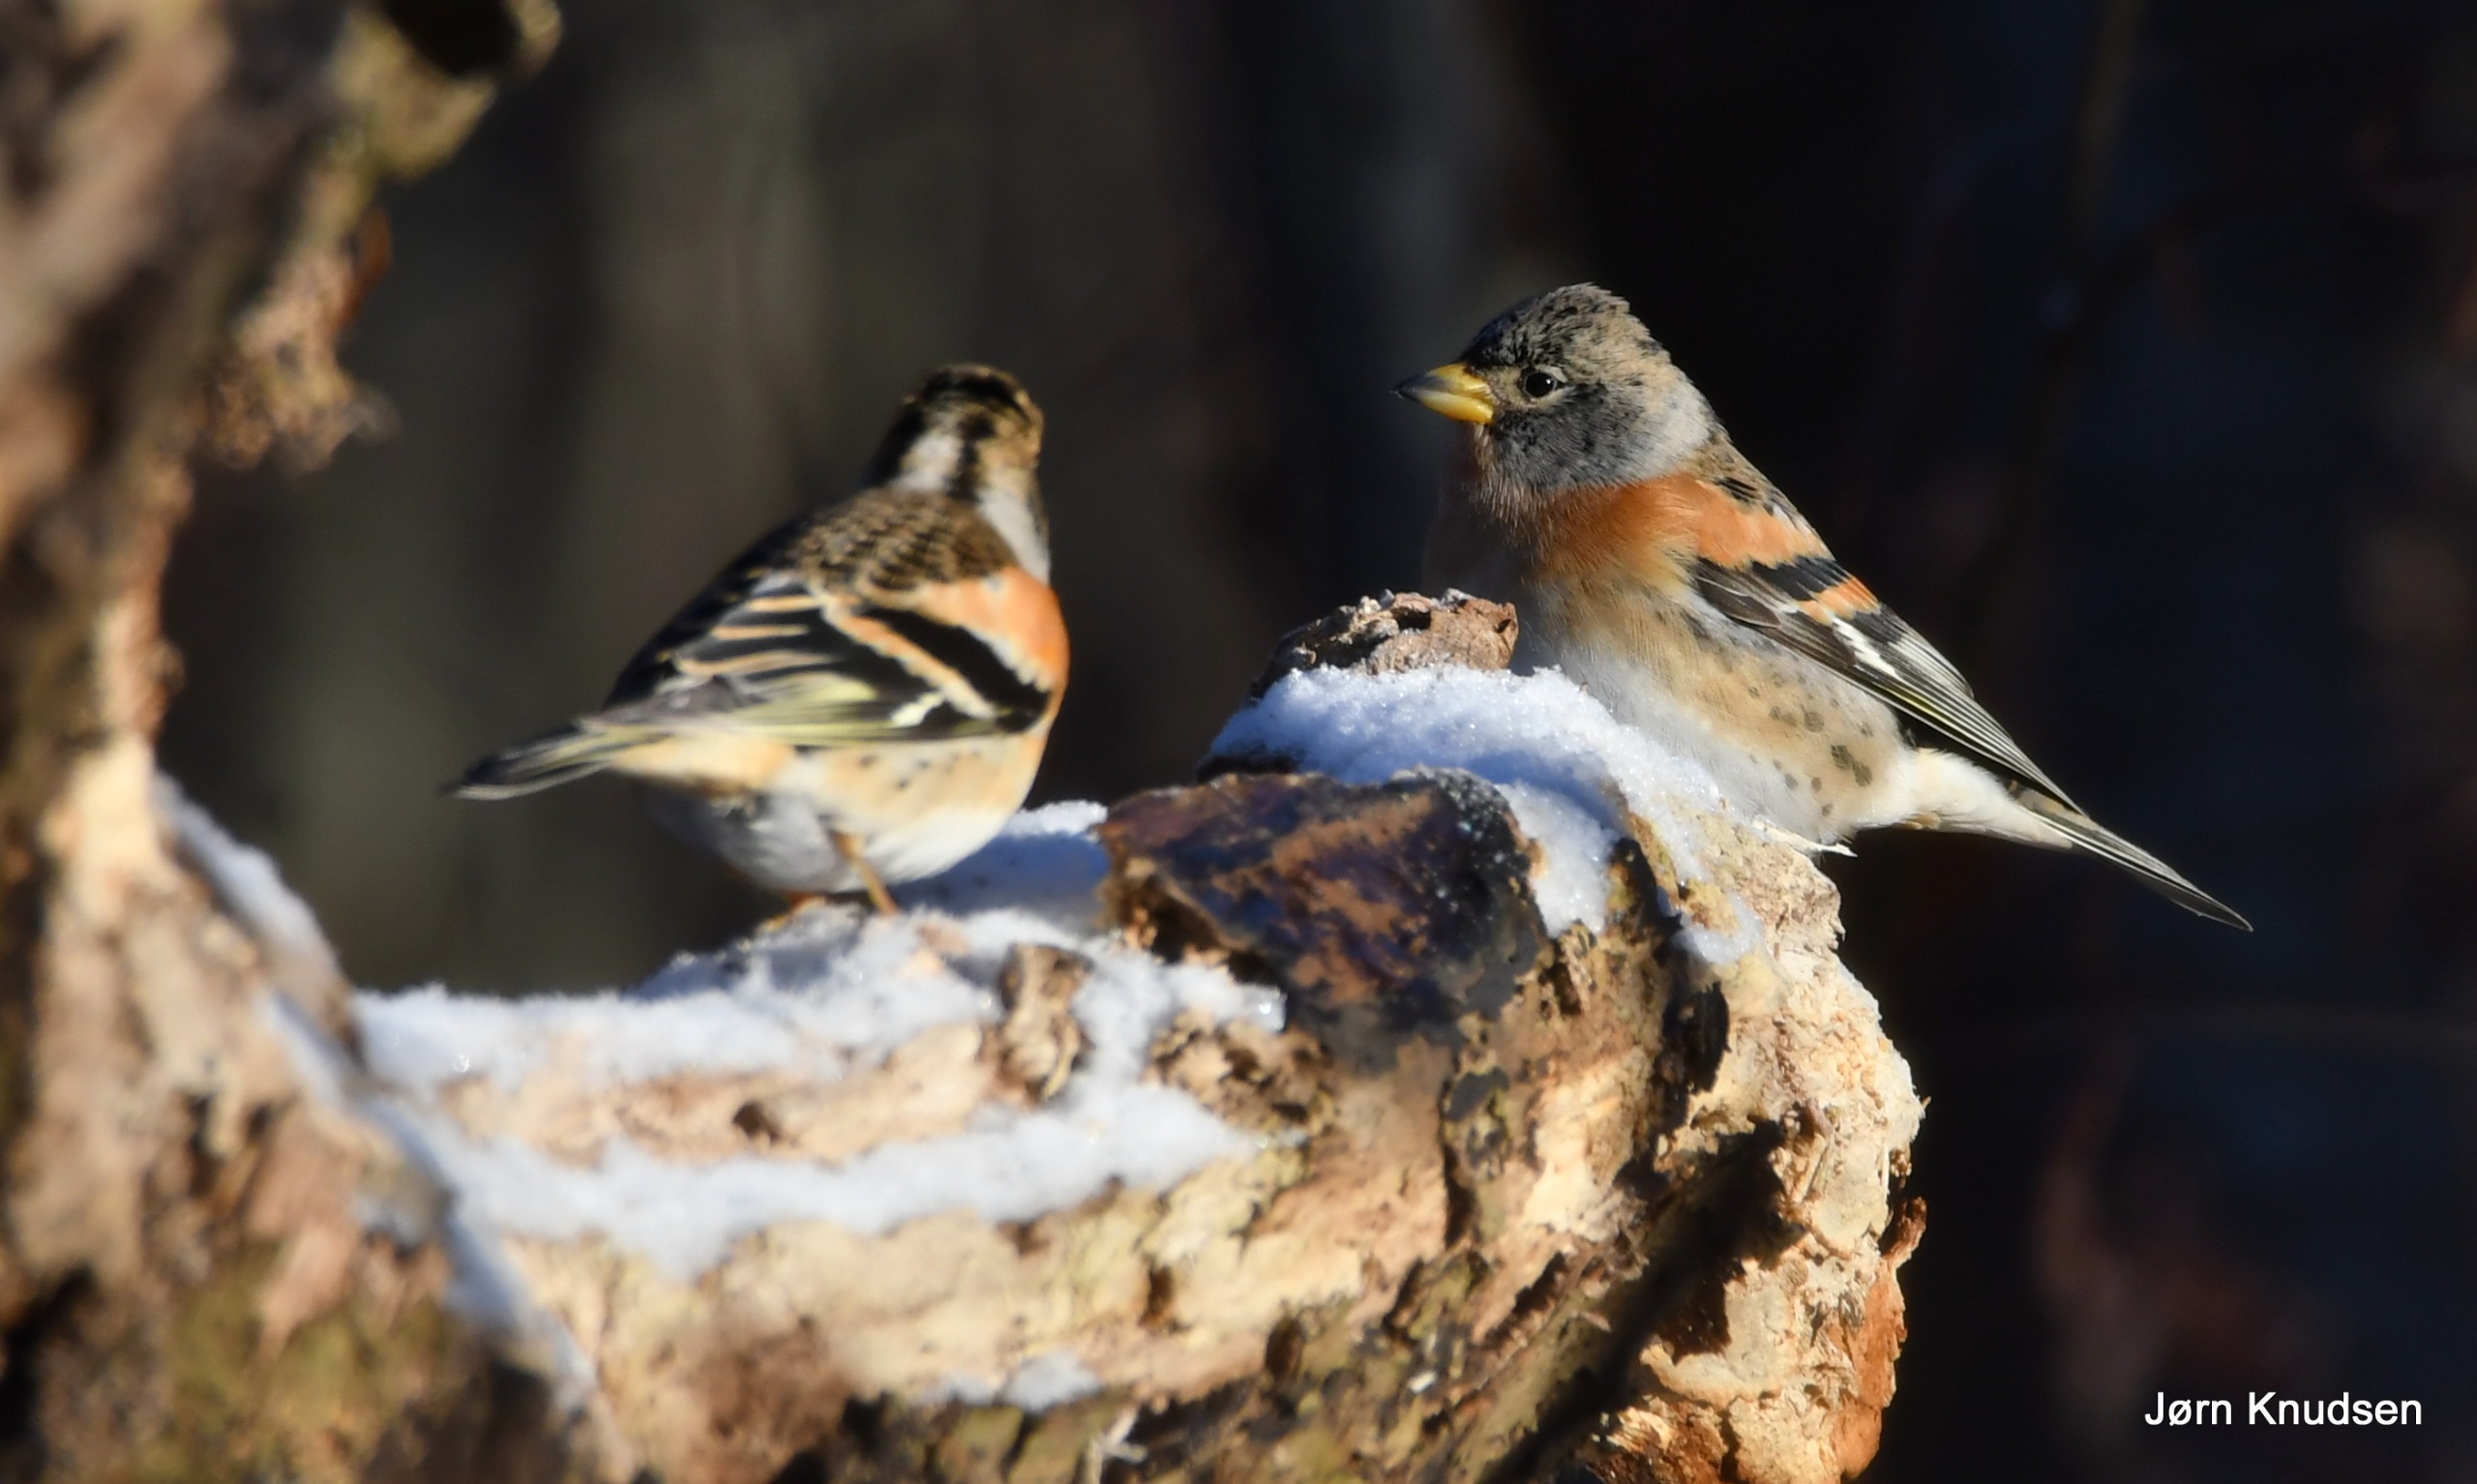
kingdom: Animalia
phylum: Chordata
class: Aves
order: Passeriformes
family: Fringillidae
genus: Fringilla
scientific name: Fringilla montifringilla
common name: Kvækerfinke
